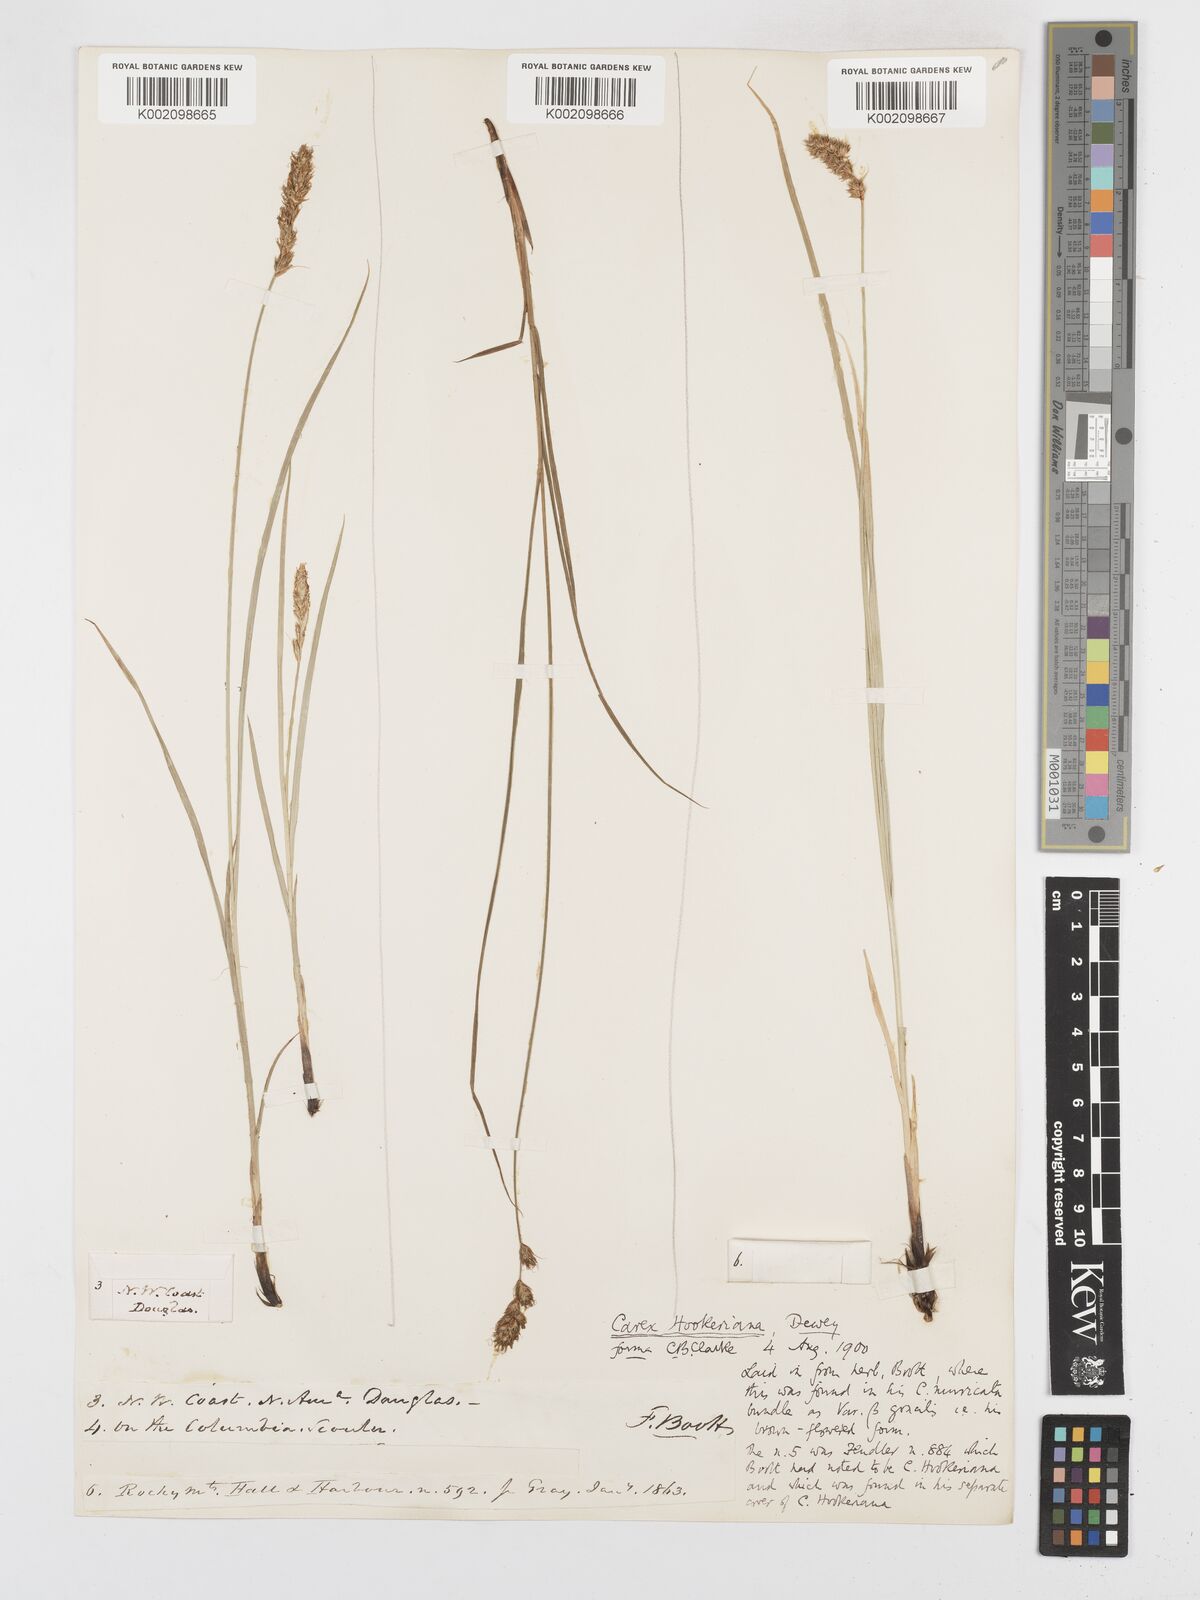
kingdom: Plantae
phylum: Tracheophyta
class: Liliopsida
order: Poales
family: Cyperaceae
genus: Carex
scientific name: Carex tumulicola
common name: Splitawn sedge
